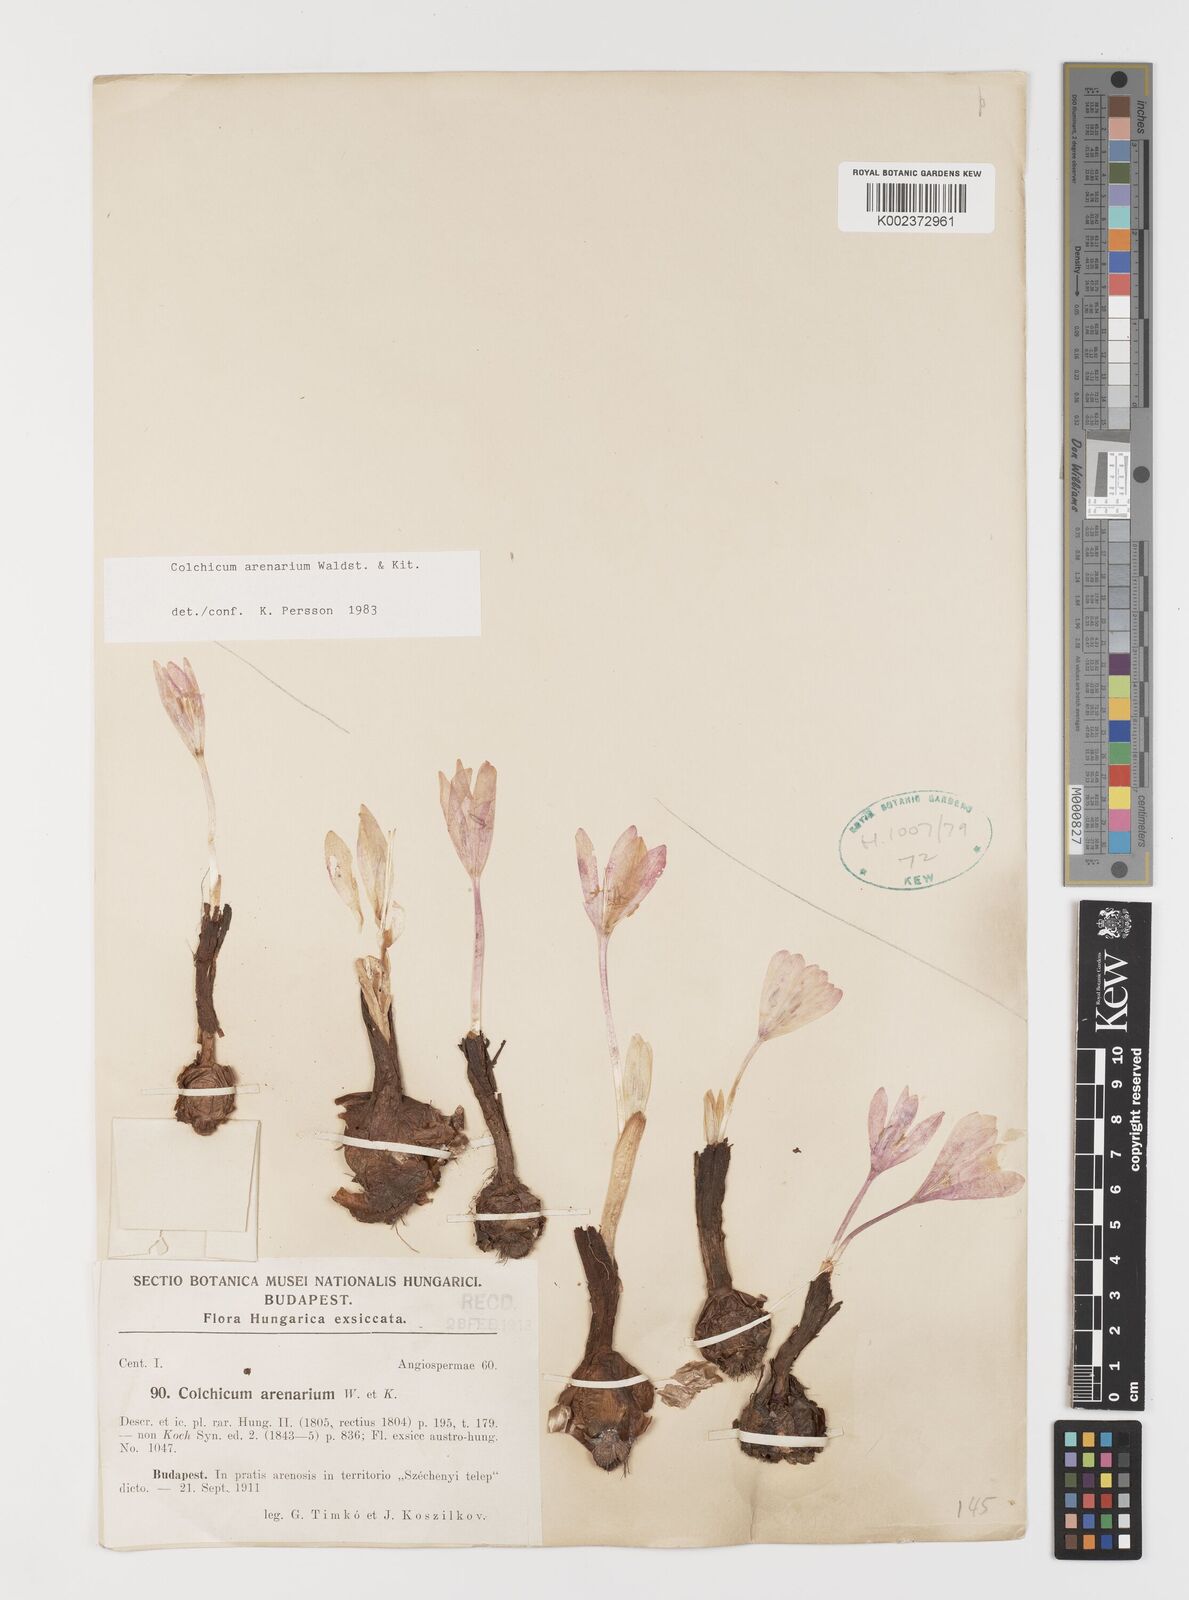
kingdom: Plantae
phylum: Tracheophyta
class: Liliopsida
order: Liliales
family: Colchicaceae
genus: Colchicum
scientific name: Colchicum arenarium
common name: Sand saffron
